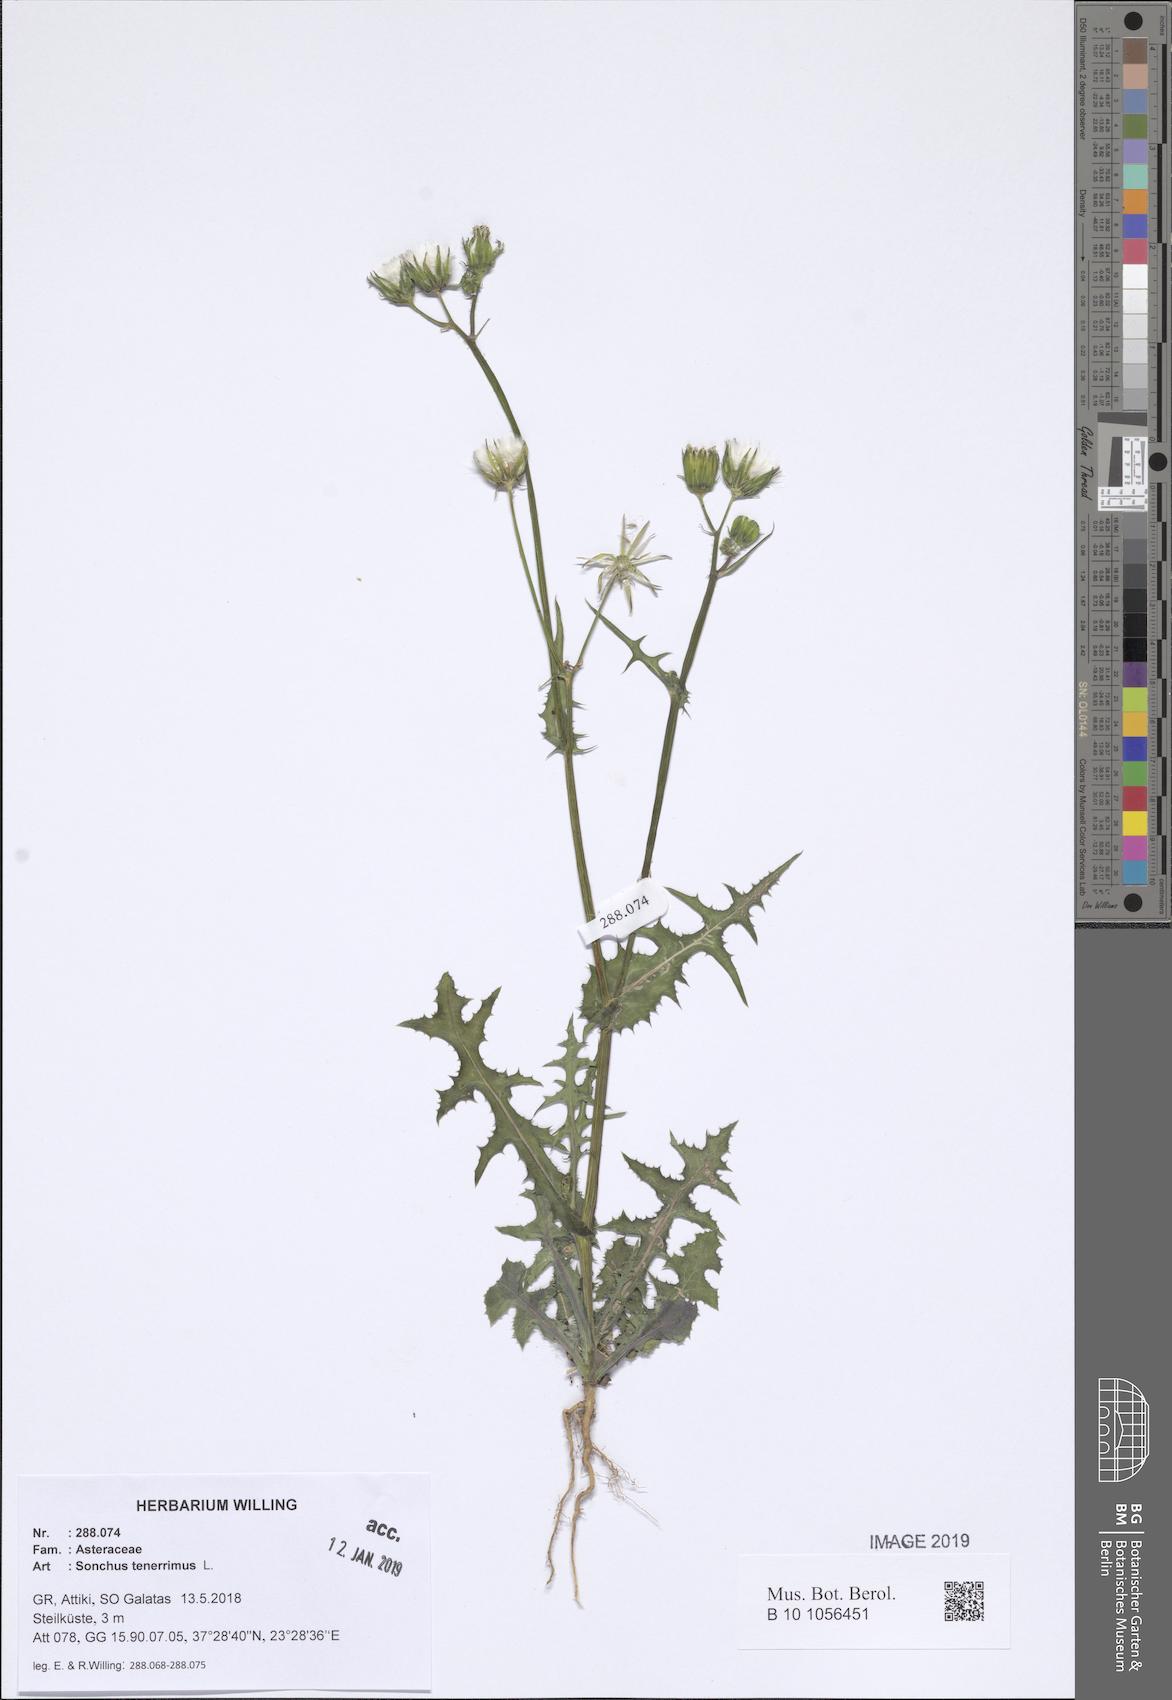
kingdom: Plantae
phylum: Tracheophyta
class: Magnoliopsida
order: Asterales
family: Asteraceae
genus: Sonchus
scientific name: Sonchus tenerrimus
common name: Clammy sowthistle
